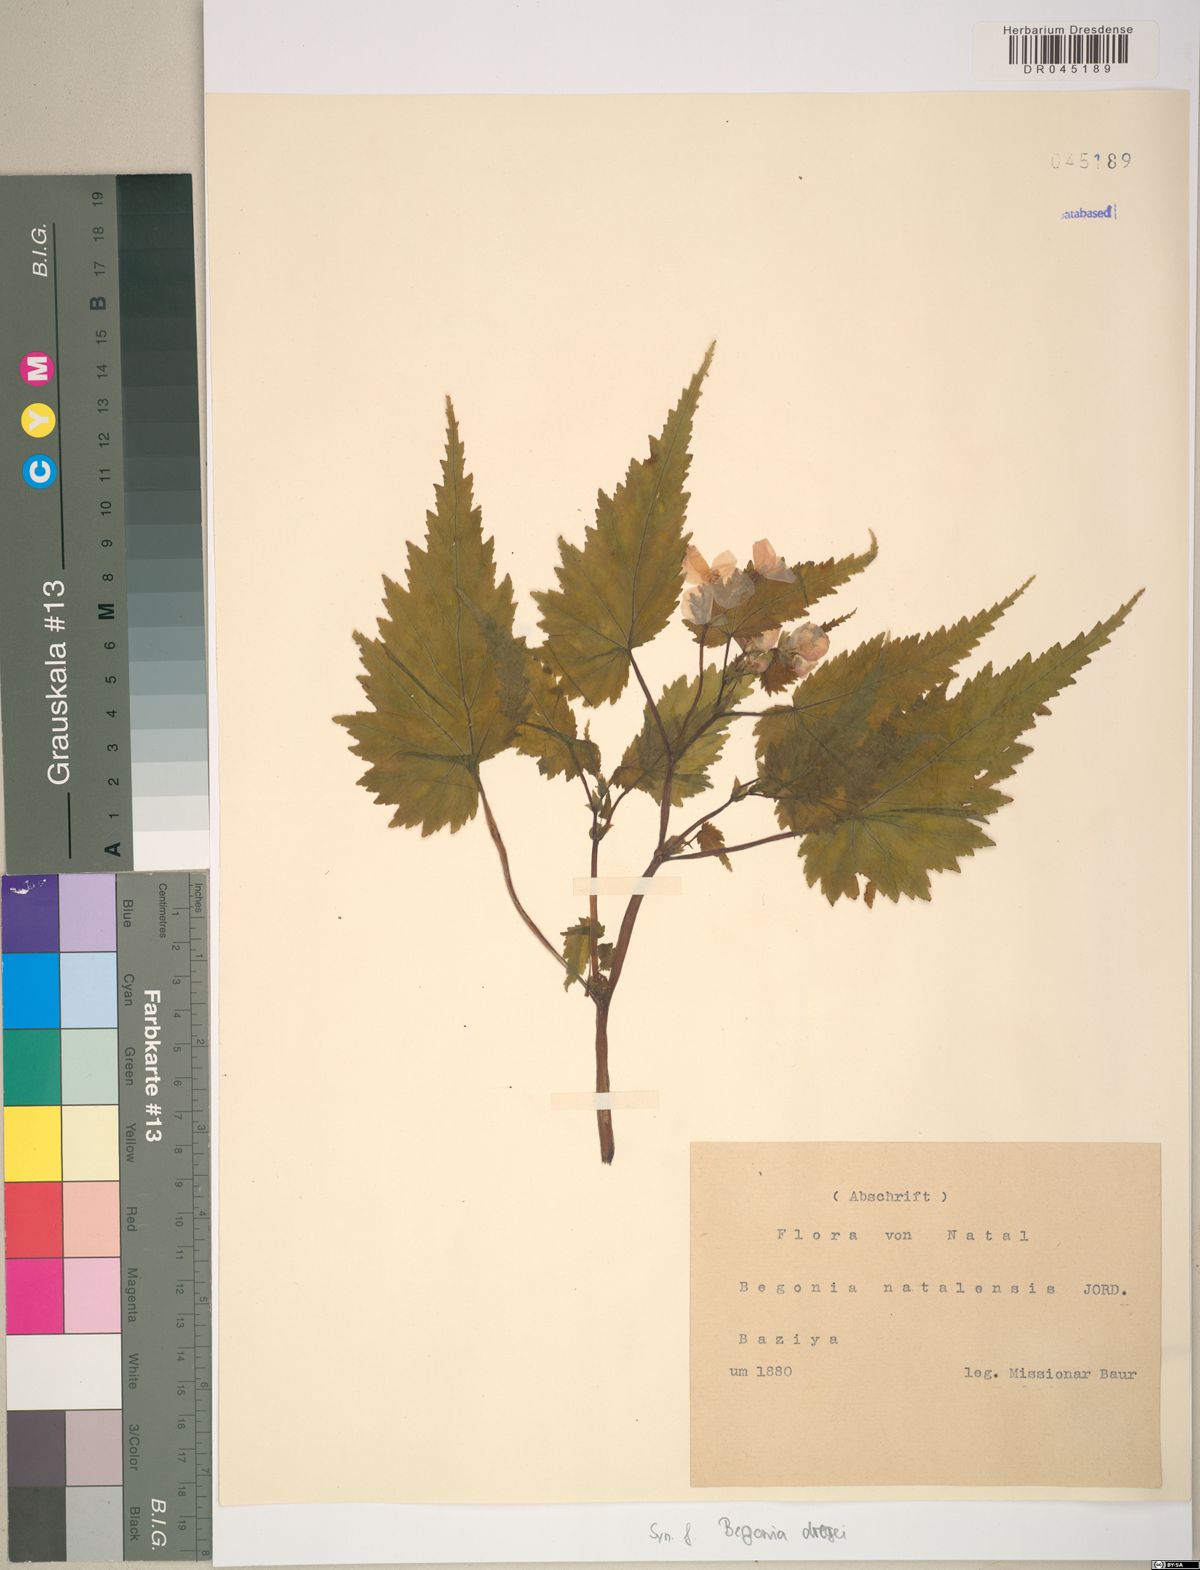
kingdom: Plantae
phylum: Tracheophyta
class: Magnoliopsida
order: Cucurbitales
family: Begoniaceae
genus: Begonia
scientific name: Begonia dregei
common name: Grape-leaf begonia
